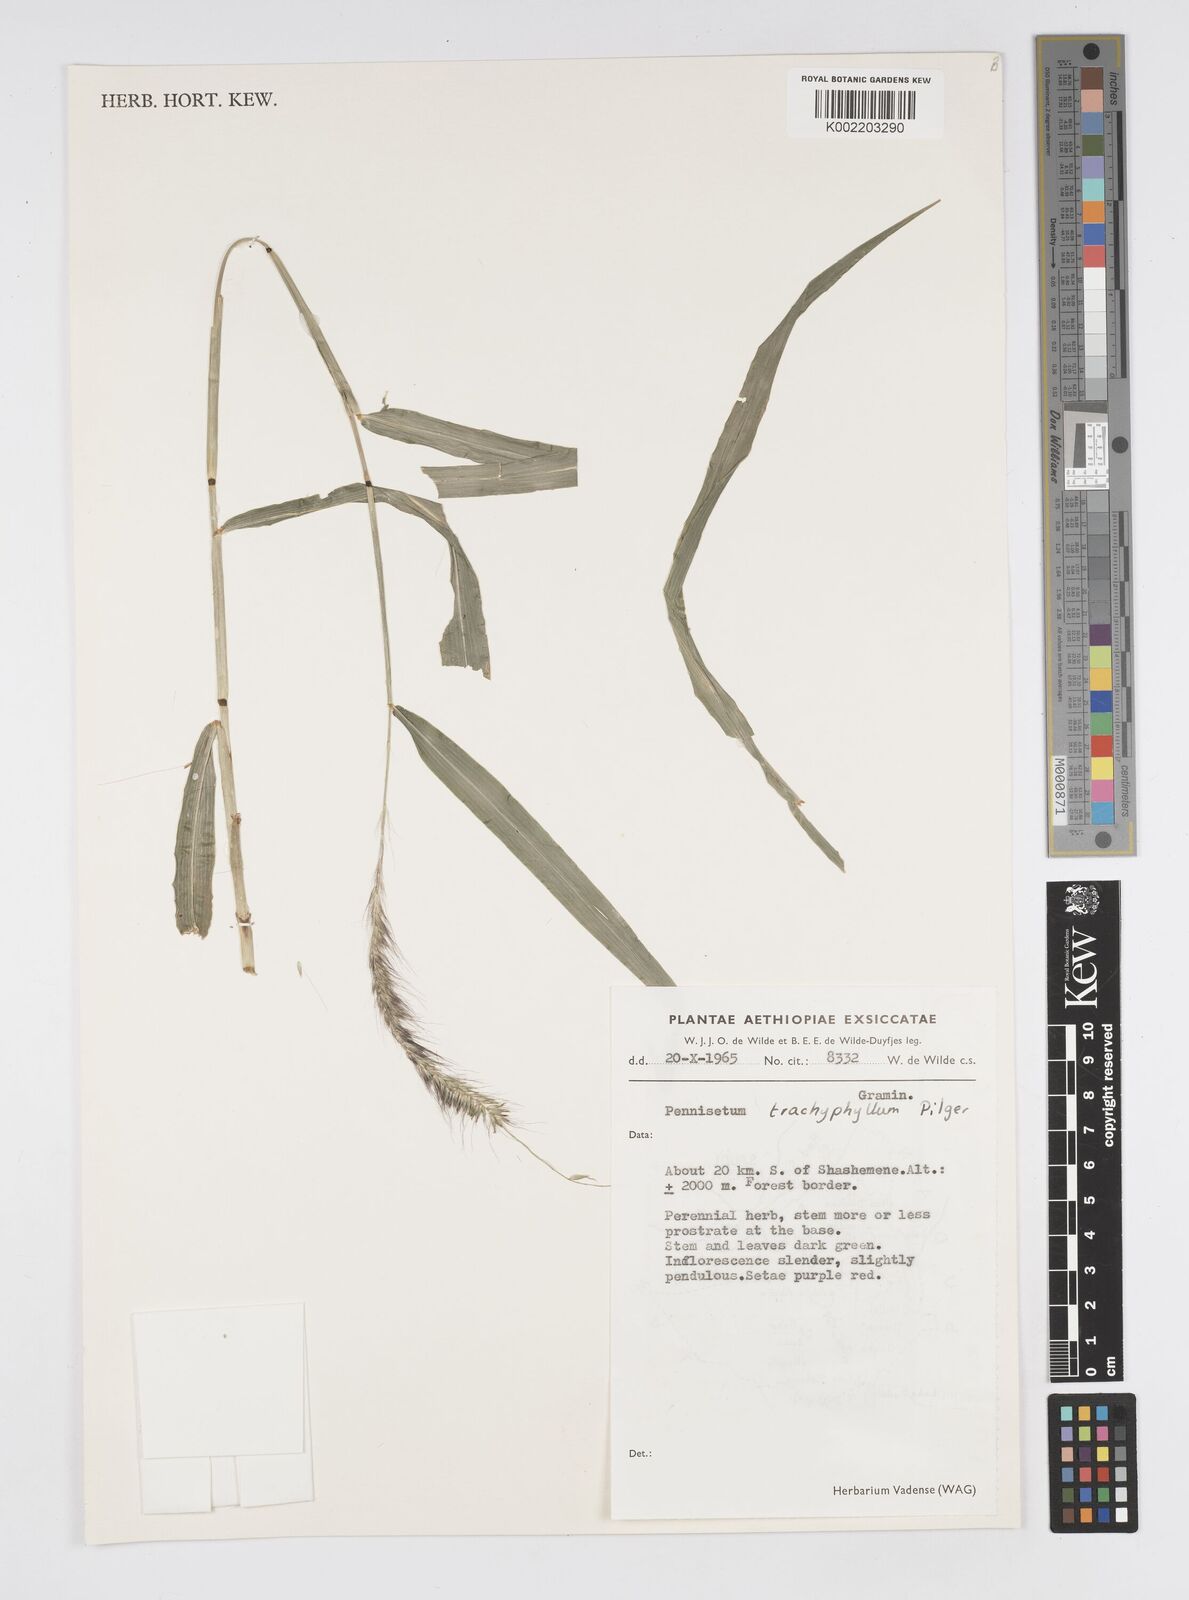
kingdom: Plantae
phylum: Tracheophyta
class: Liliopsida
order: Poales
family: Poaceae
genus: Cenchrus
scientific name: Cenchrus trachyphyllus
